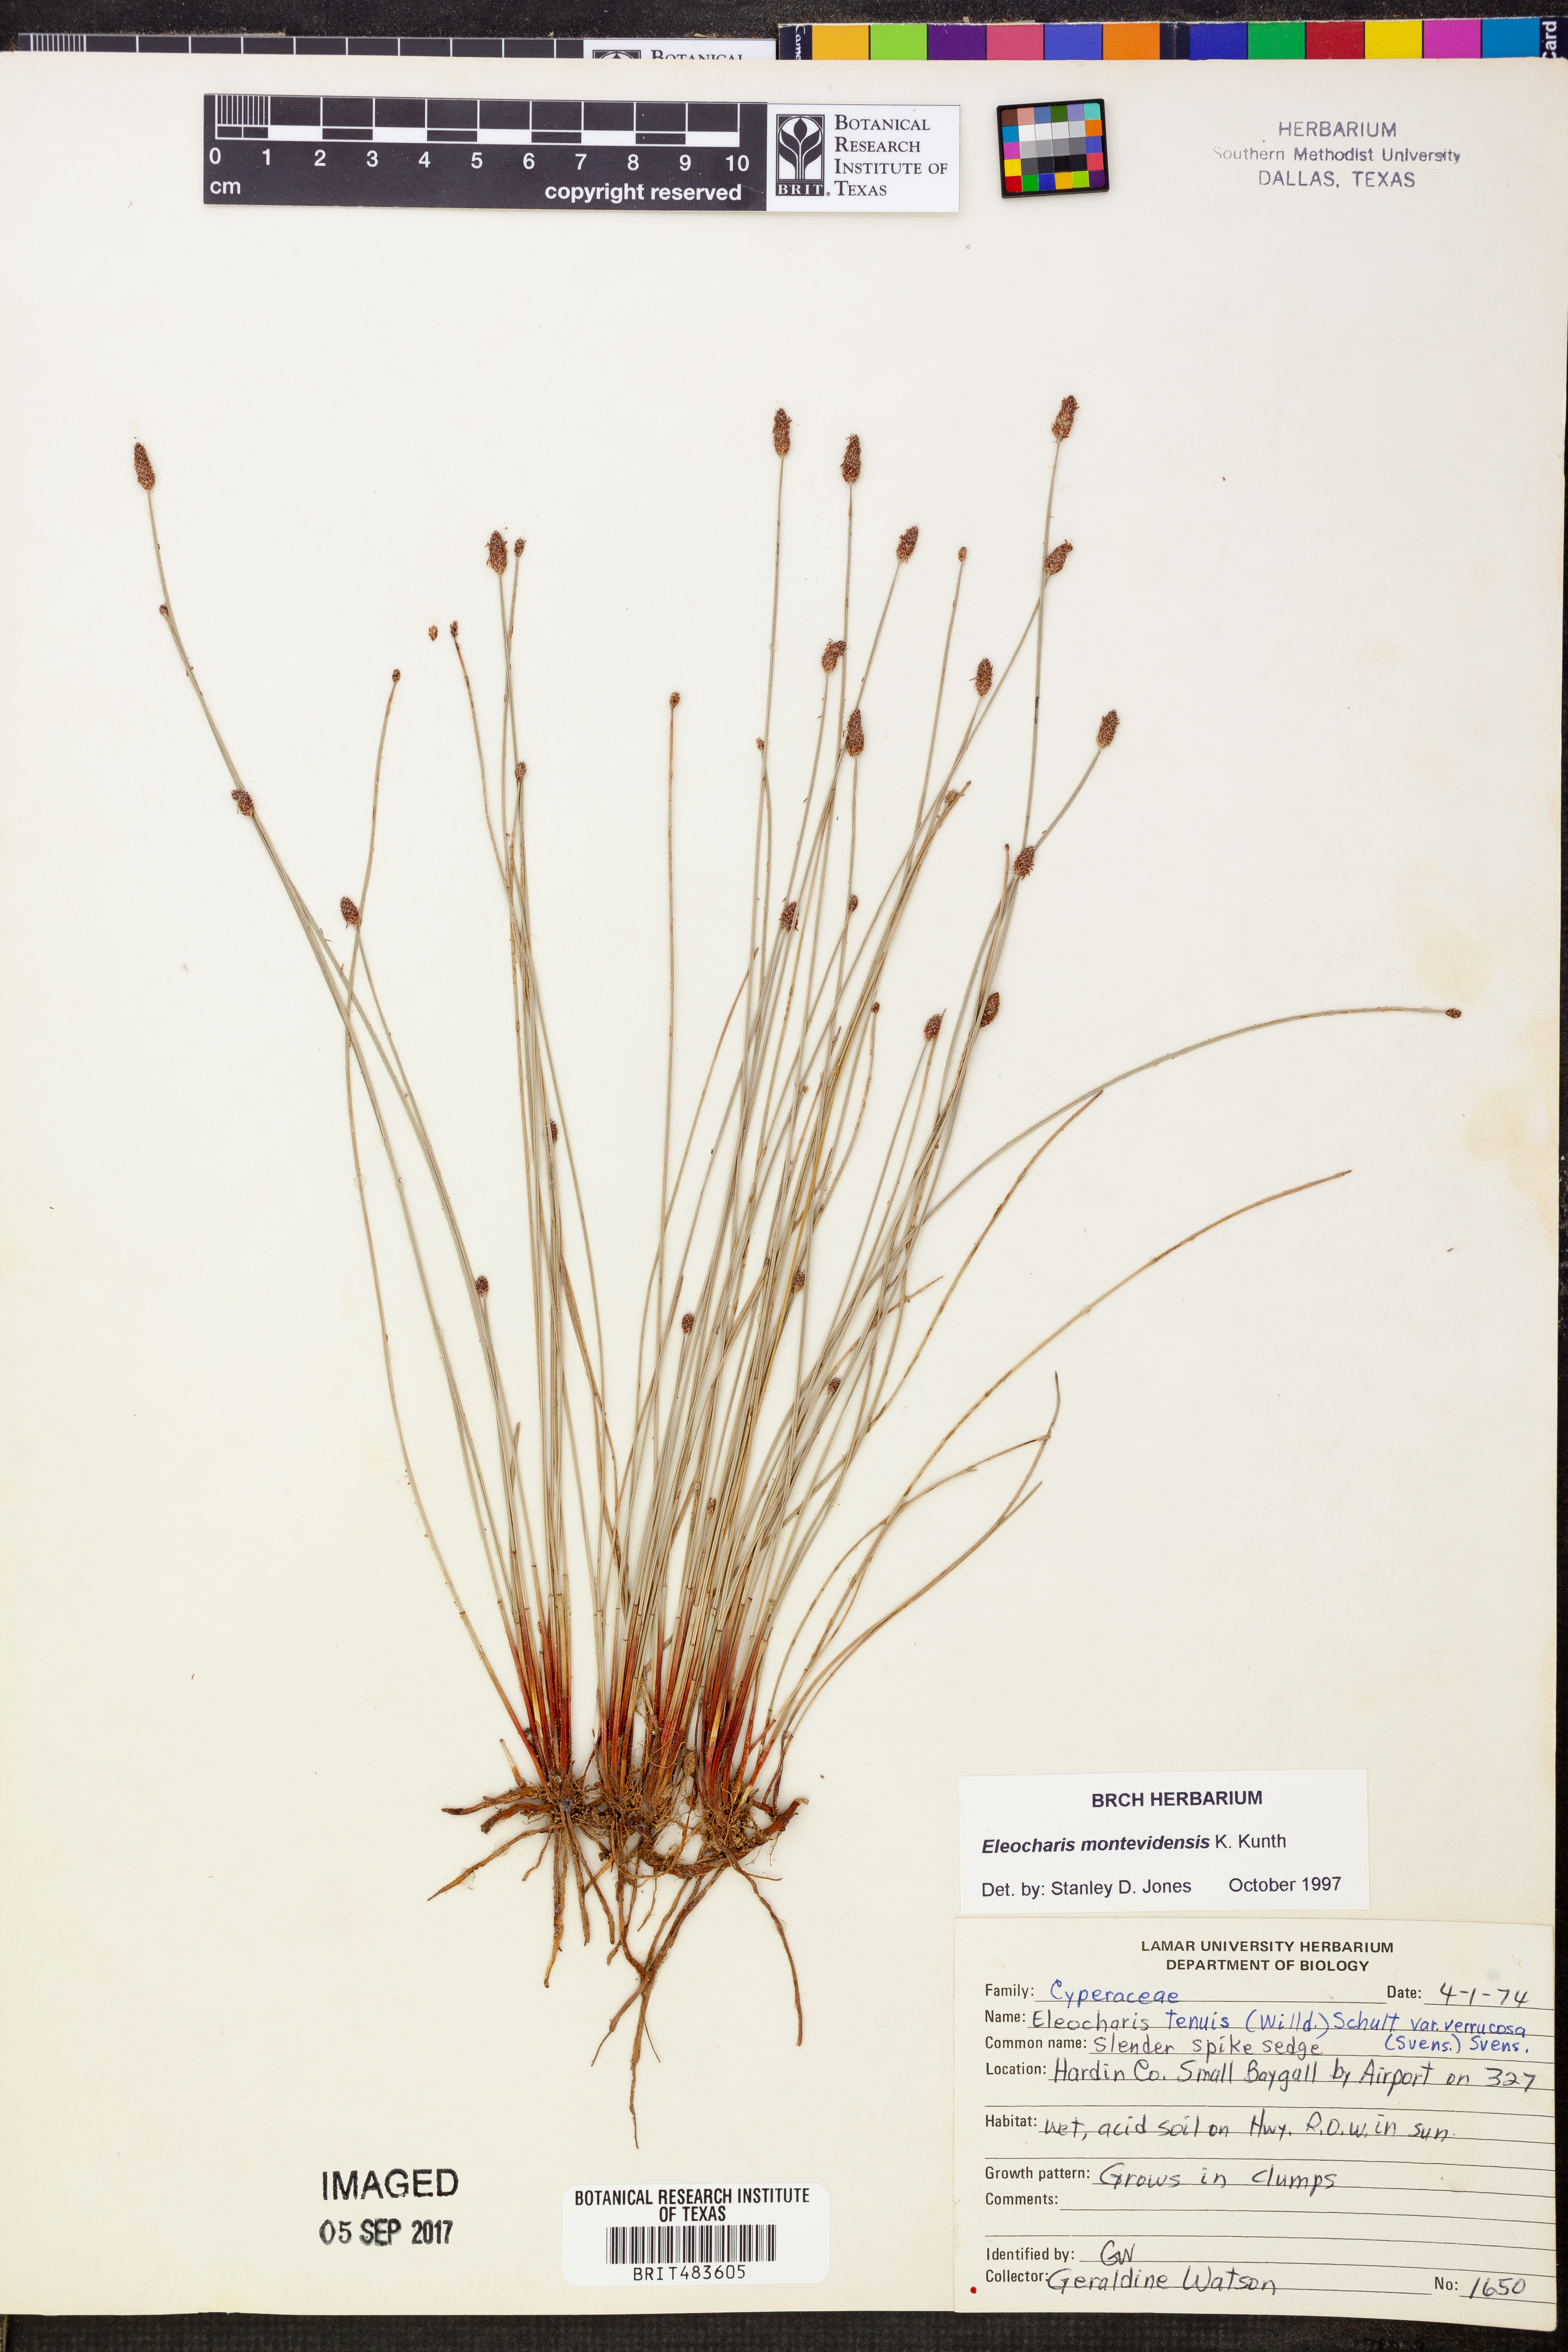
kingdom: Plantae
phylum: Tracheophyta
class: Liliopsida
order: Poales
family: Cyperaceae
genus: Eleocharis
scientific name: Eleocharis montevidensis
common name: Sand spike-rush
